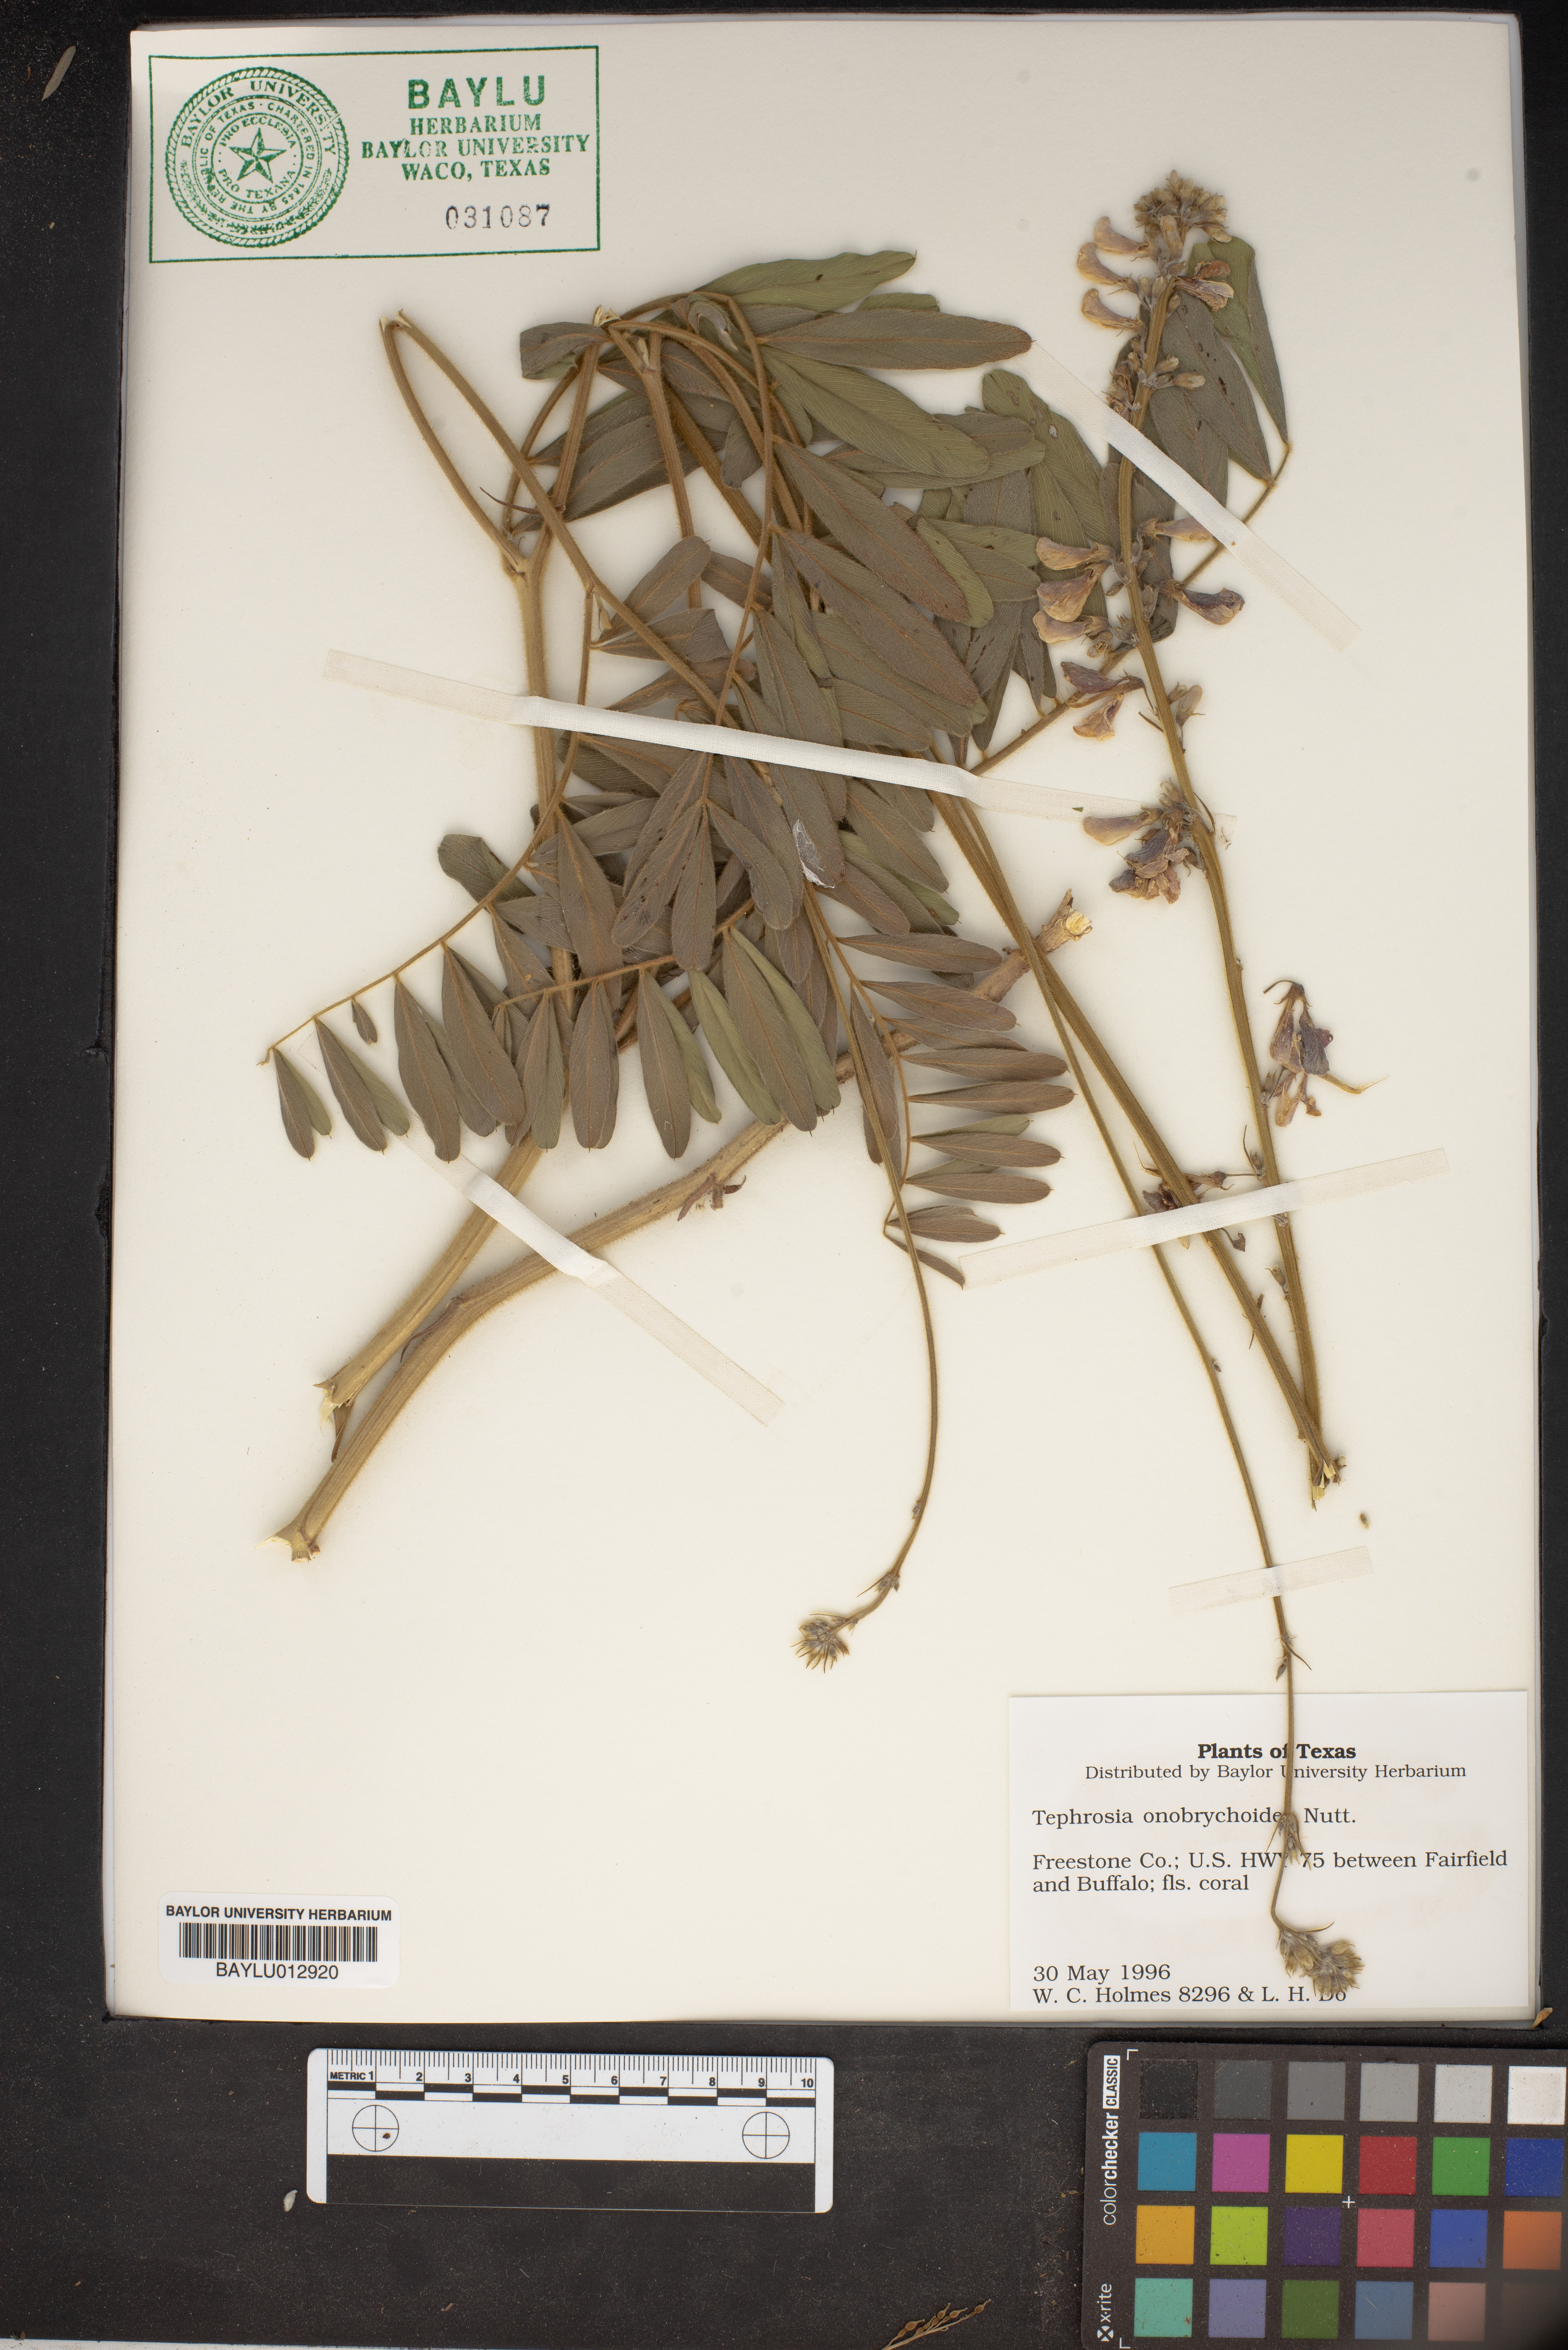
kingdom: Plantae
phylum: Tracheophyta
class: Magnoliopsida
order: Fabales
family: Fabaceae
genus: Tephrosia
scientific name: Tephrosia onobrychoides
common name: Multi-bloom hoary-pea
